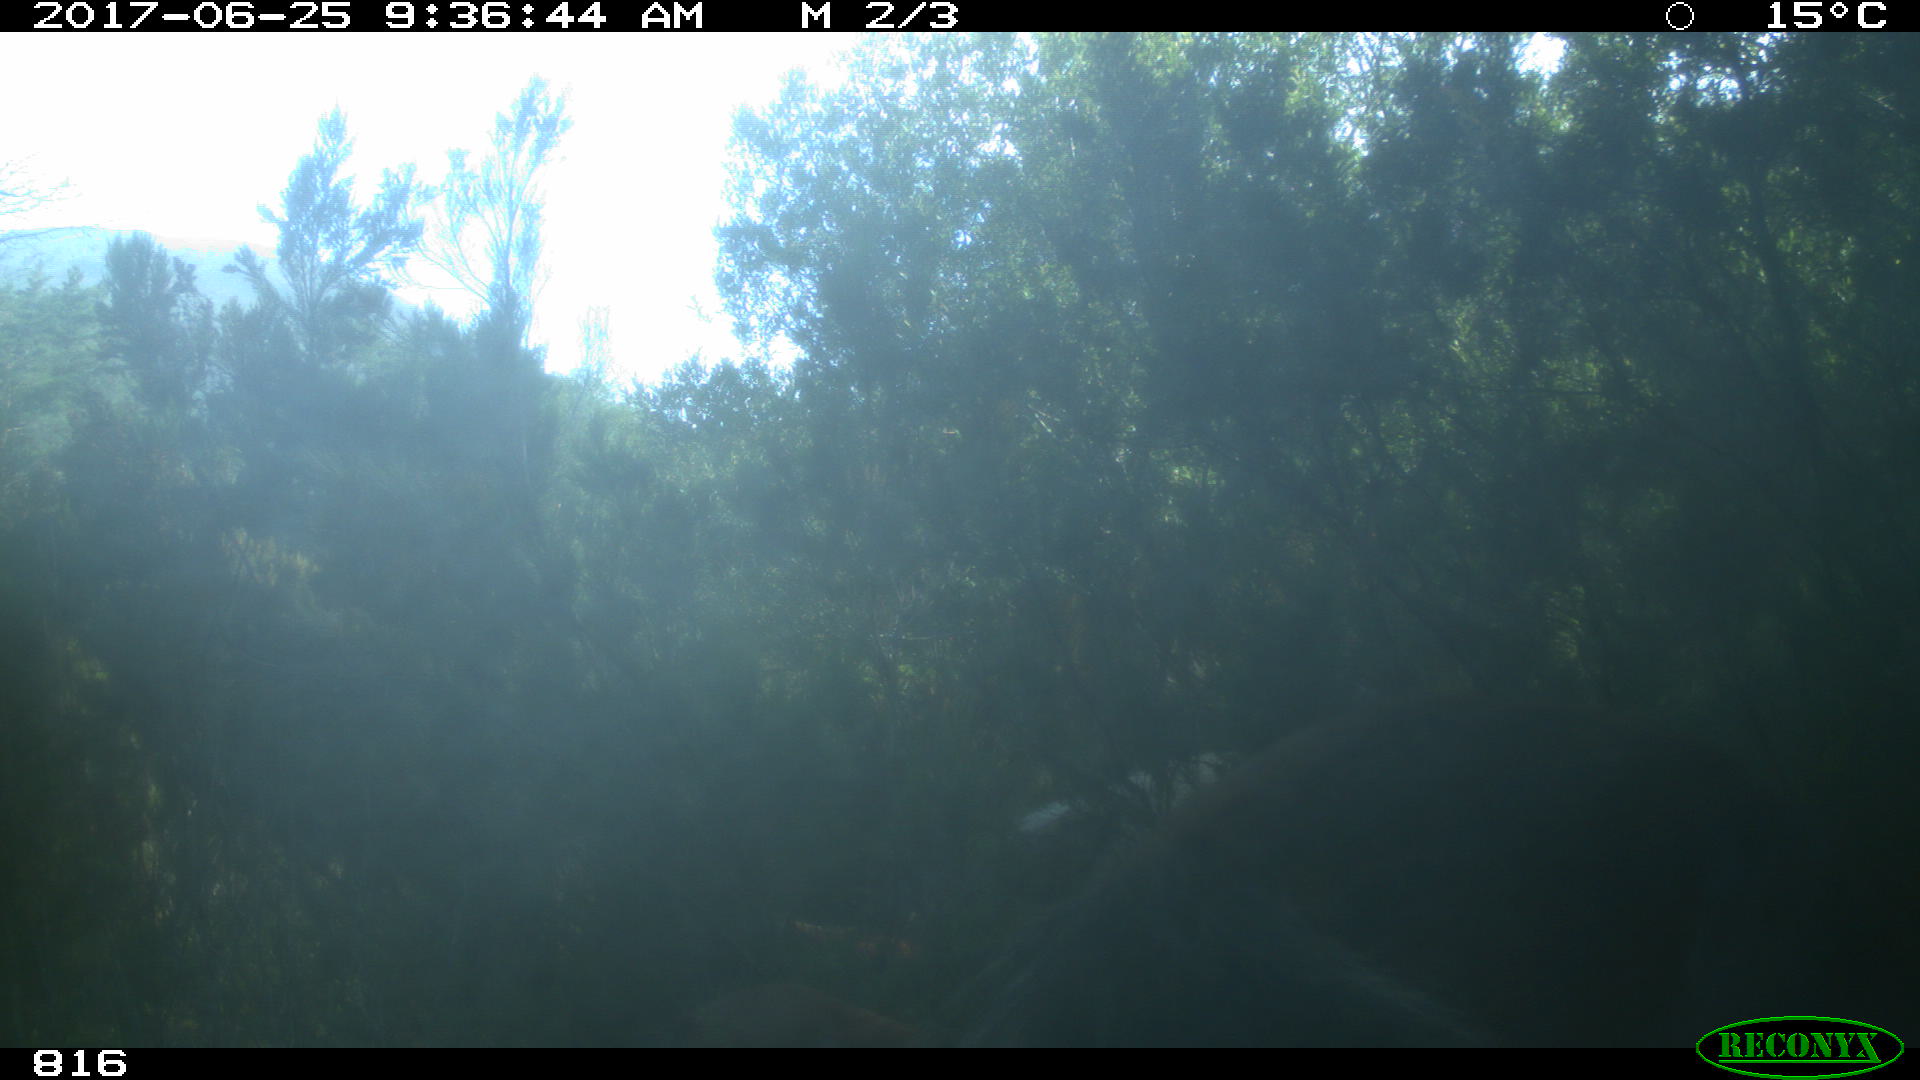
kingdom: Animalia
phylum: Chordata
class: Mammalia
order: Perissodactyla
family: Equidae
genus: Equus
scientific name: Equus caballus
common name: Horse
